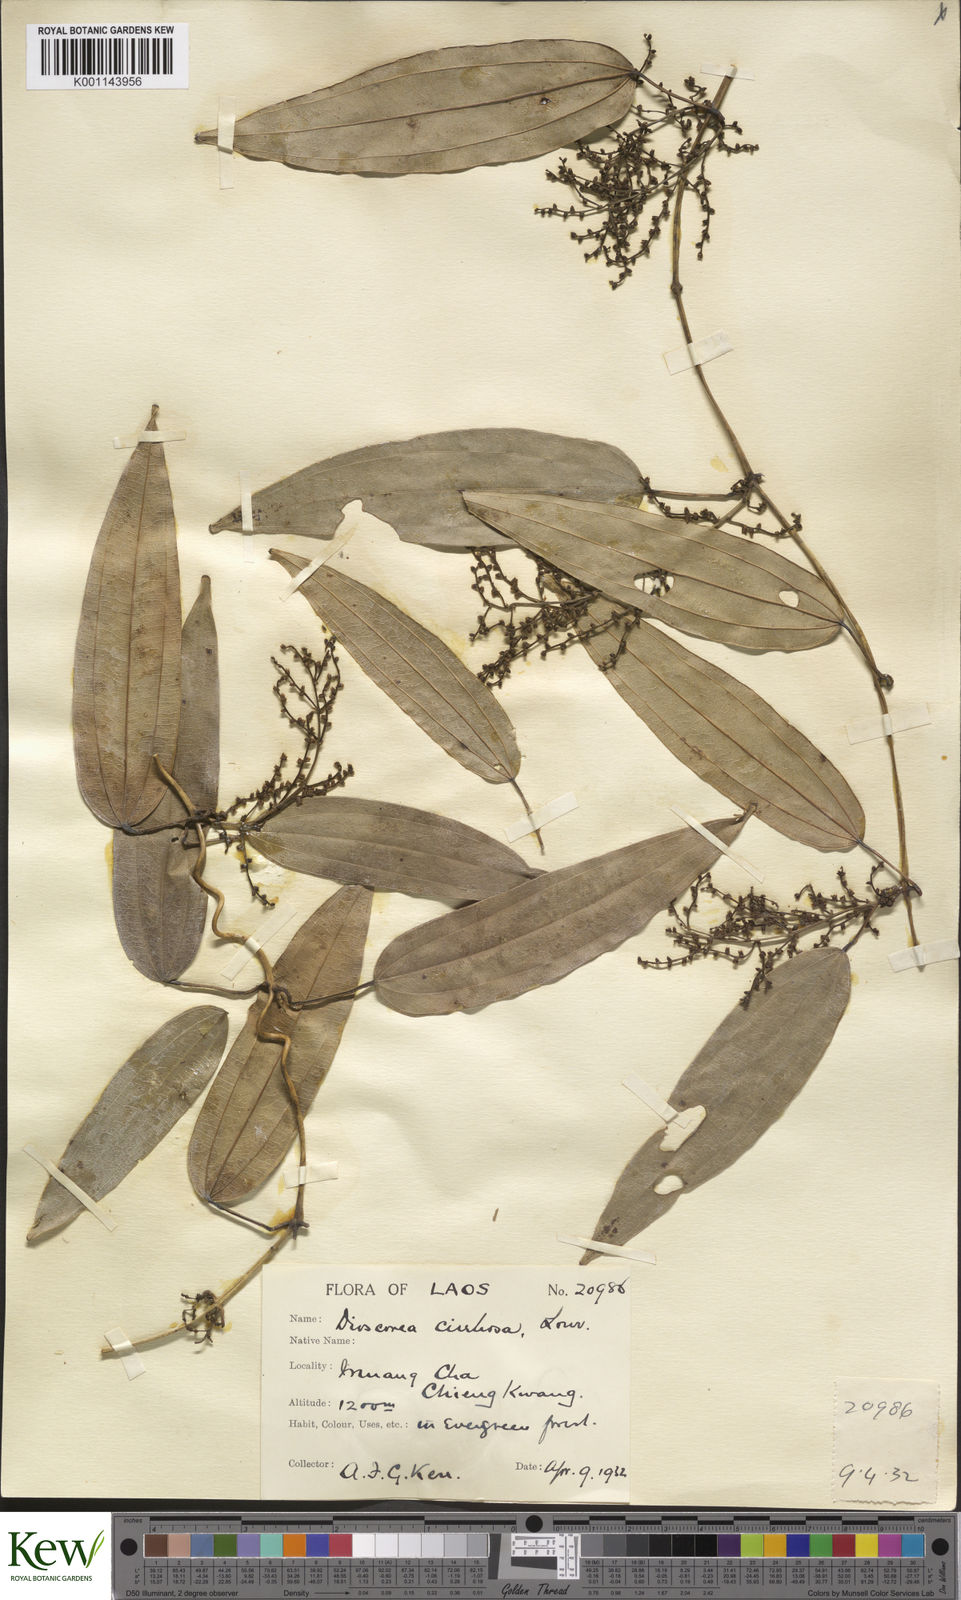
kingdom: Plantae
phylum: Tracheophyta
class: Liliopsida
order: Dioscoreales
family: Dioscoreaceae
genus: Dioscorea
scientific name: Dioscorea cirrhosa
